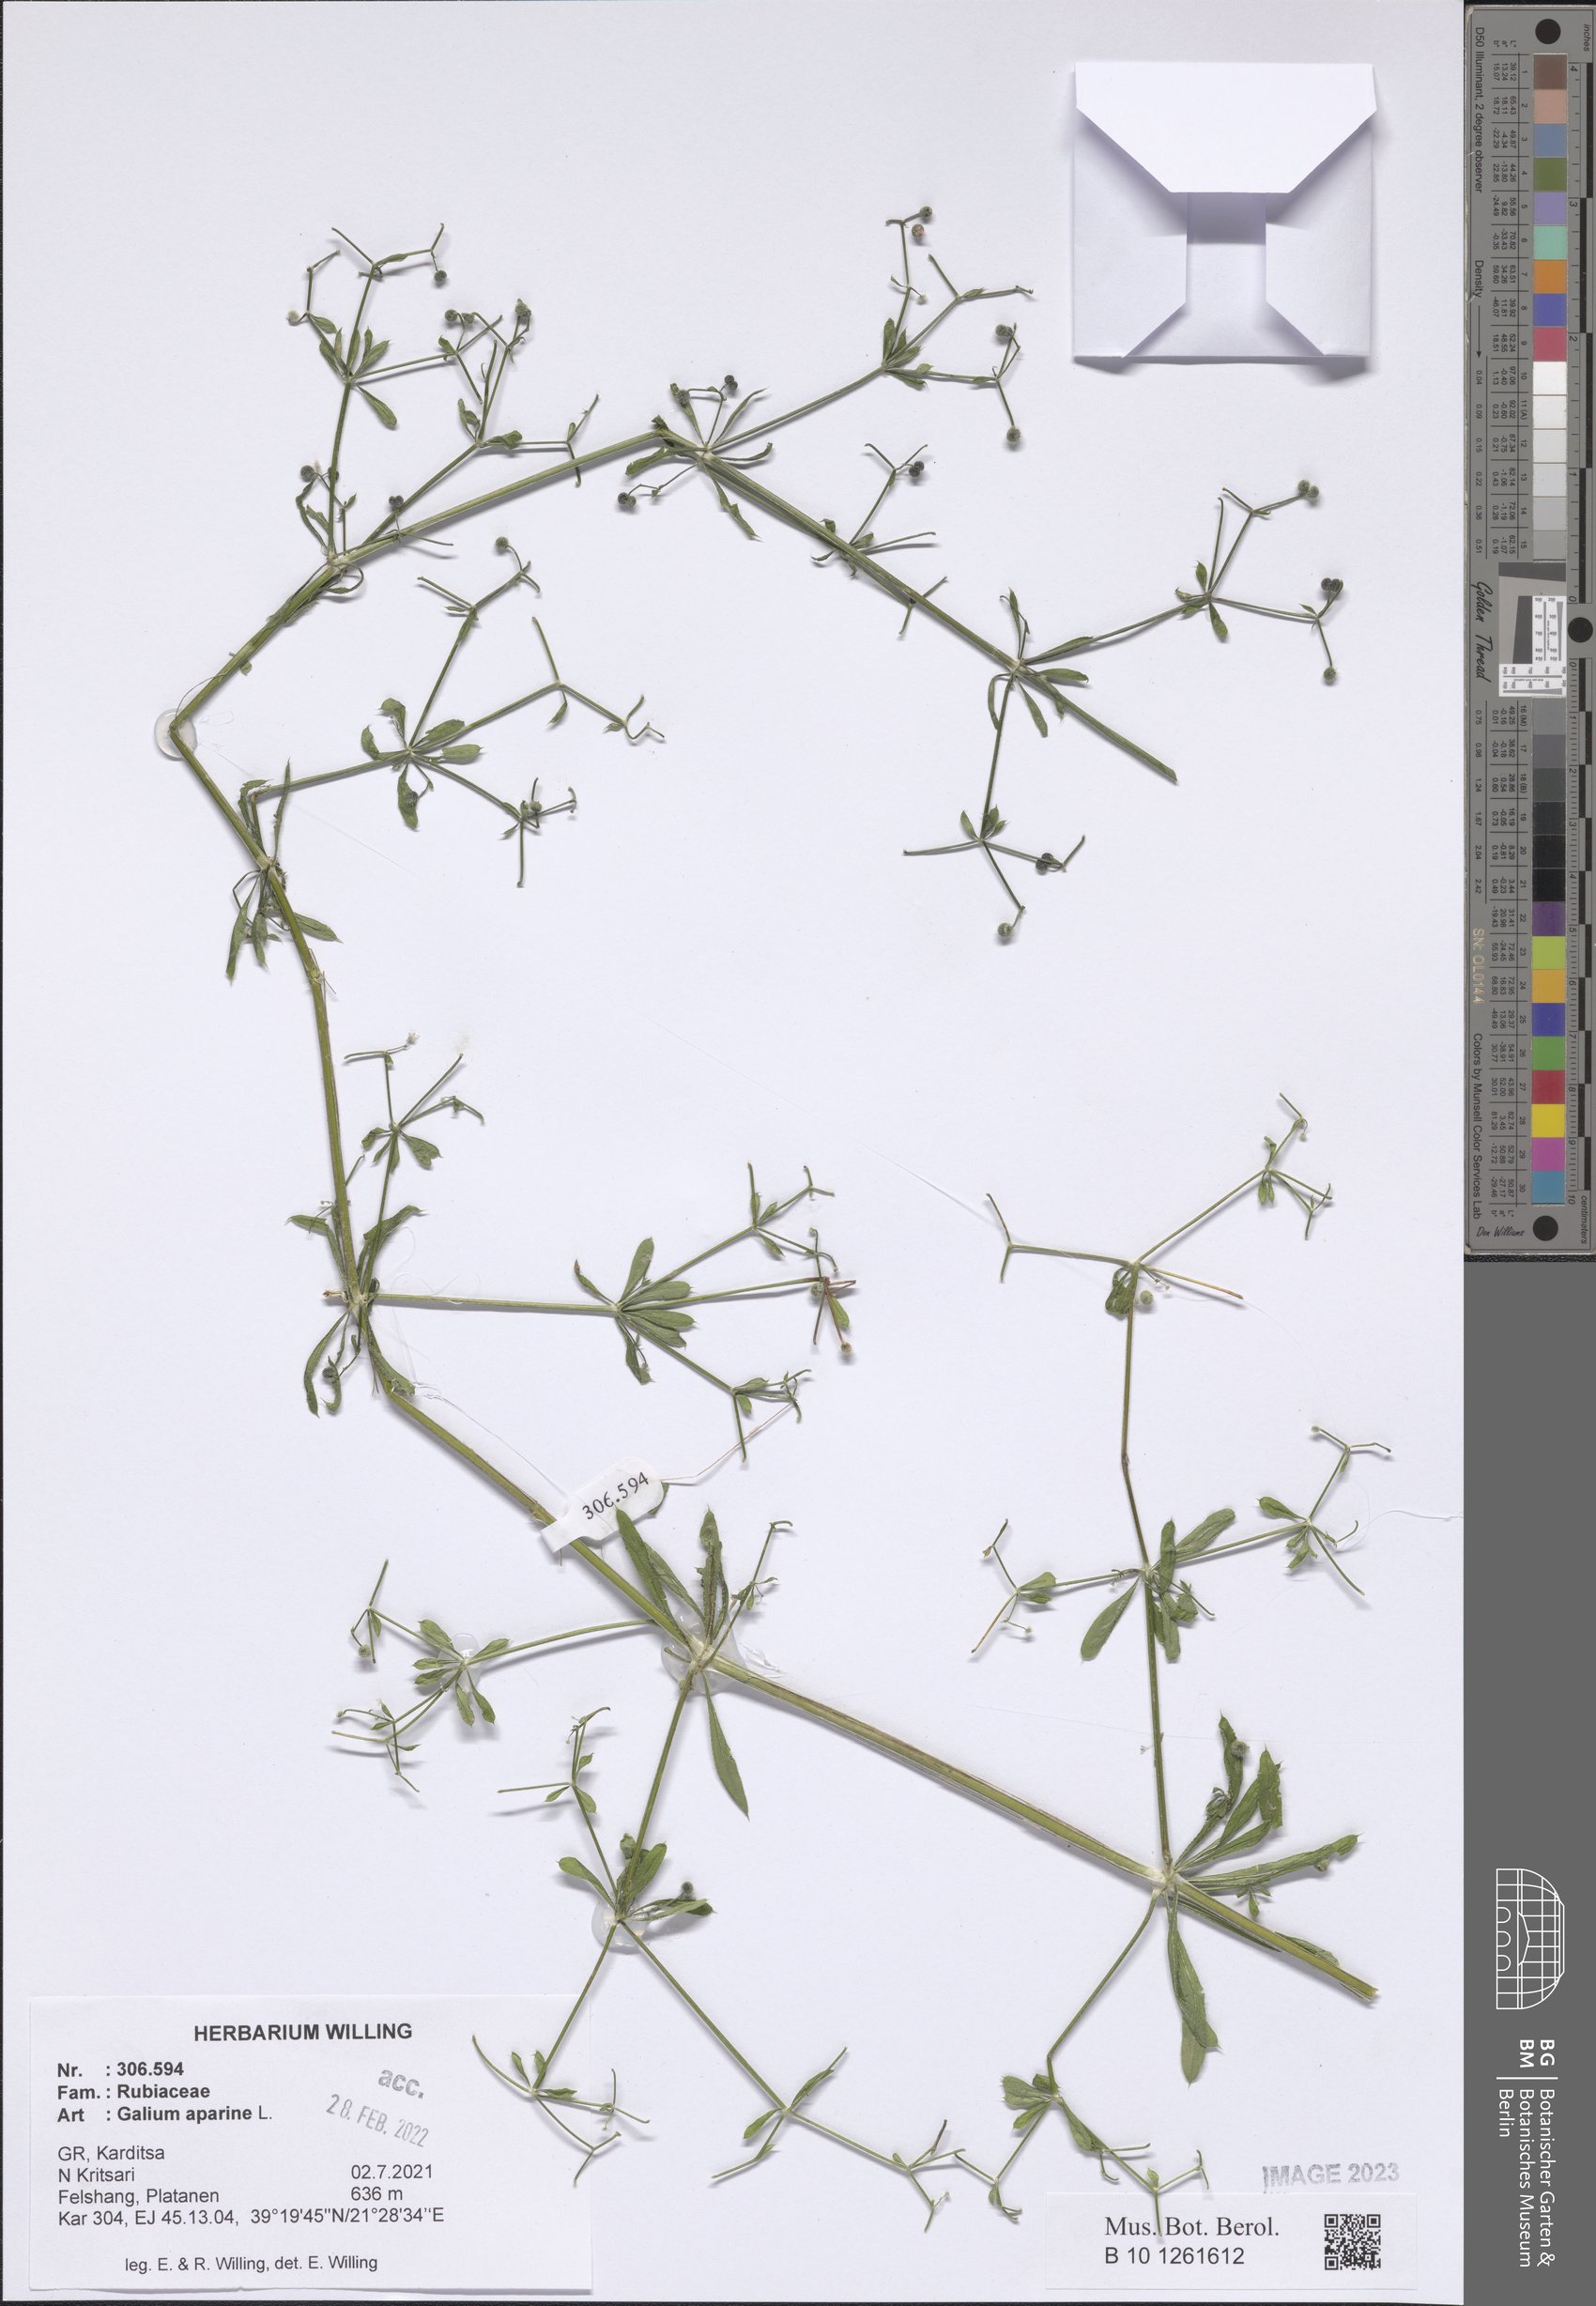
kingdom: Plantae
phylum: Tracheophyta
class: Magnoliopsida
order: Gentianales
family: Rubiaceae
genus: Galium
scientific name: Galium aparine
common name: Cleavers
